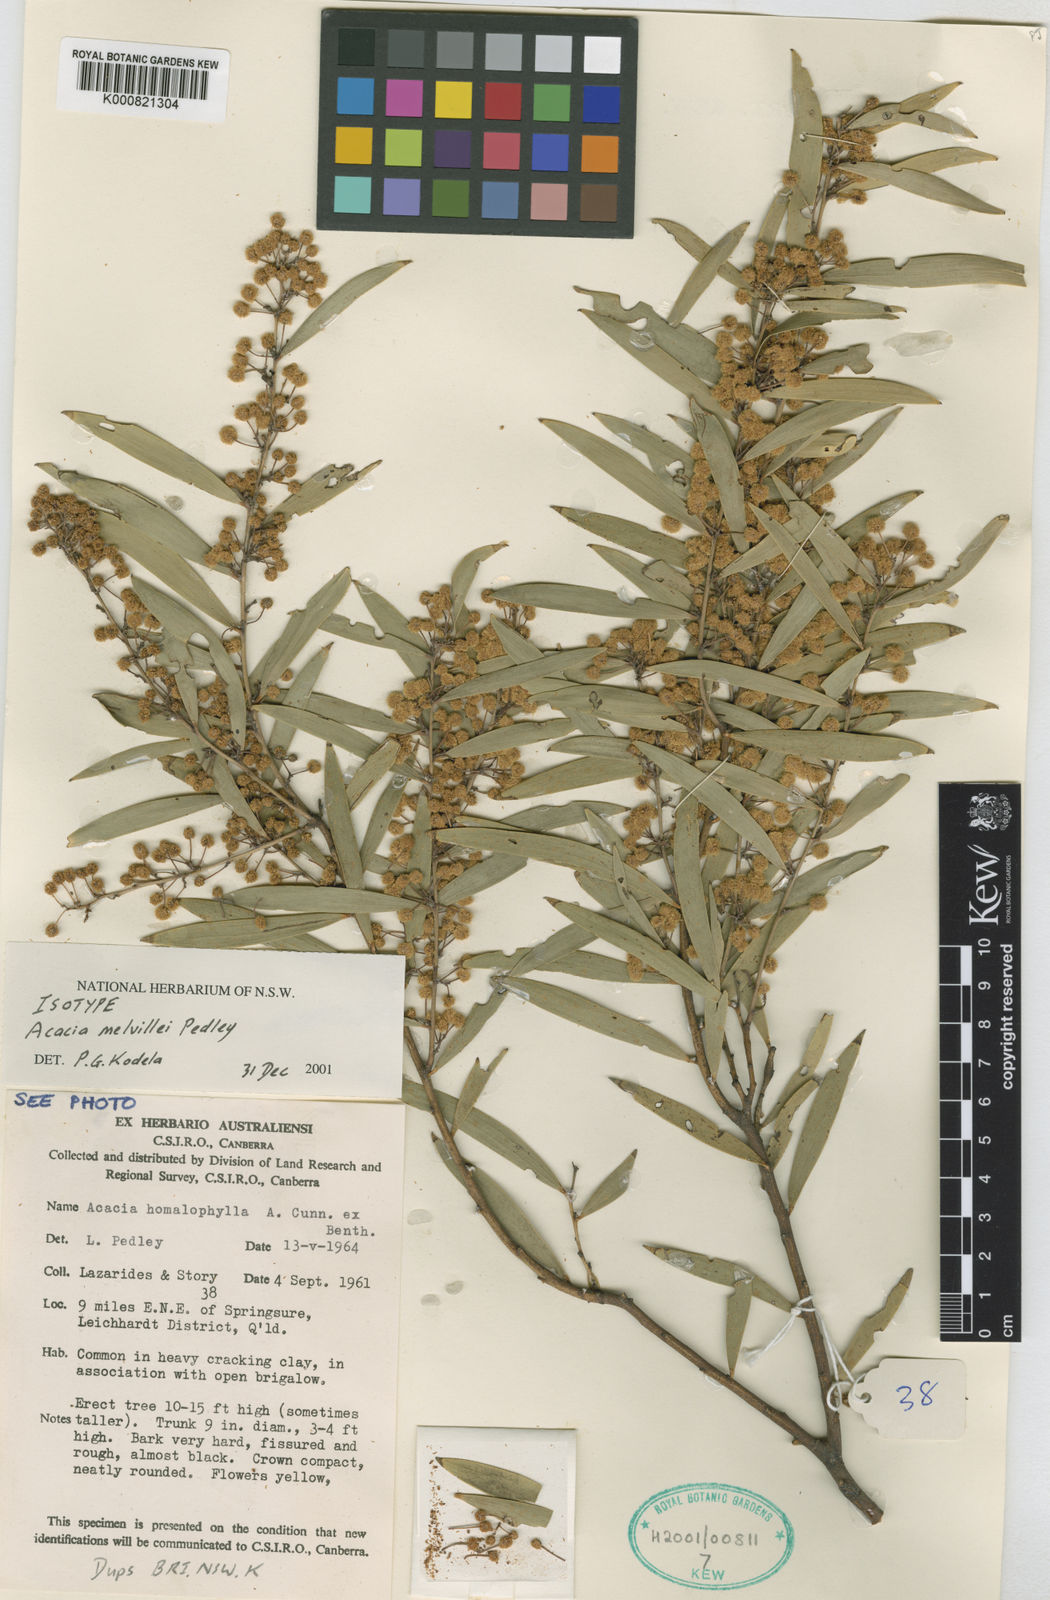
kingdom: Plantae
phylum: Tracheophyta
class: Magnoliopsida
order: Fabales
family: Fabaceae
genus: Acacia
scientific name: Acacia melvillei
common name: Yarran
